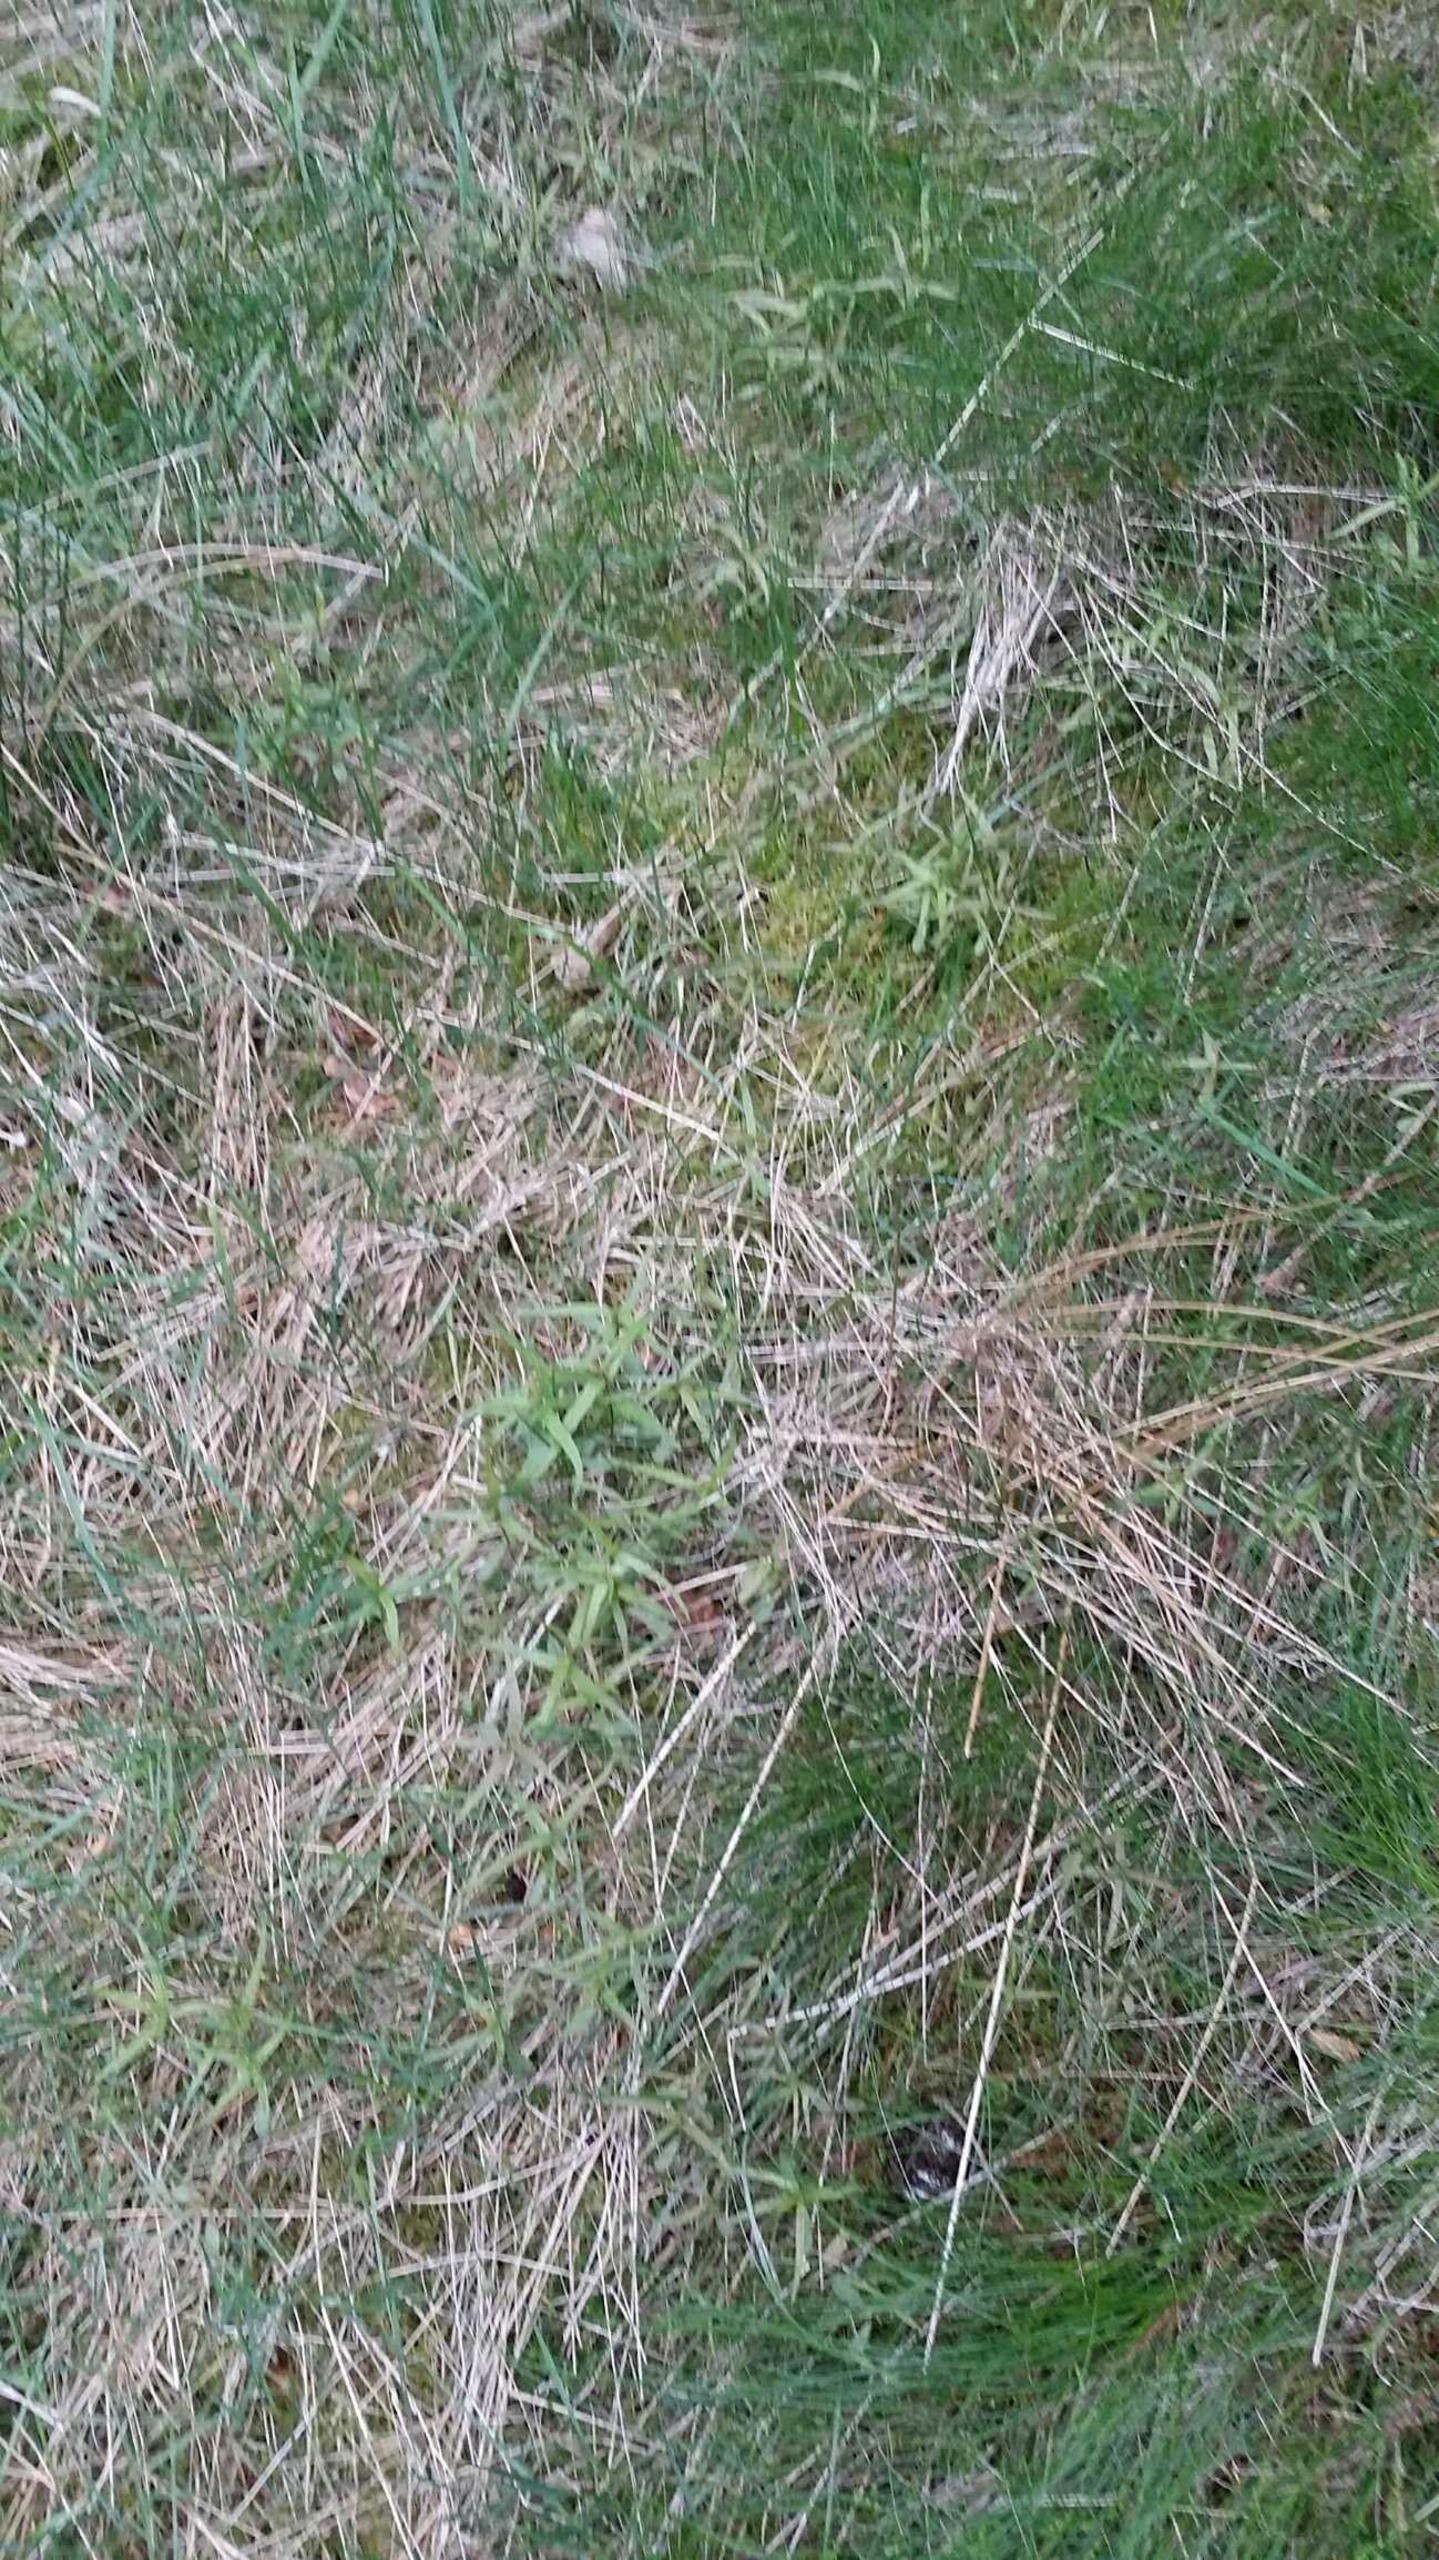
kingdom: Plantae
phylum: Tracheophyta
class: Magnoliopsida
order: Lamiales
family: Orobanchaceae
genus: Melampyrum
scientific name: Melampyrum pratense
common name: Almindelig kohvede
